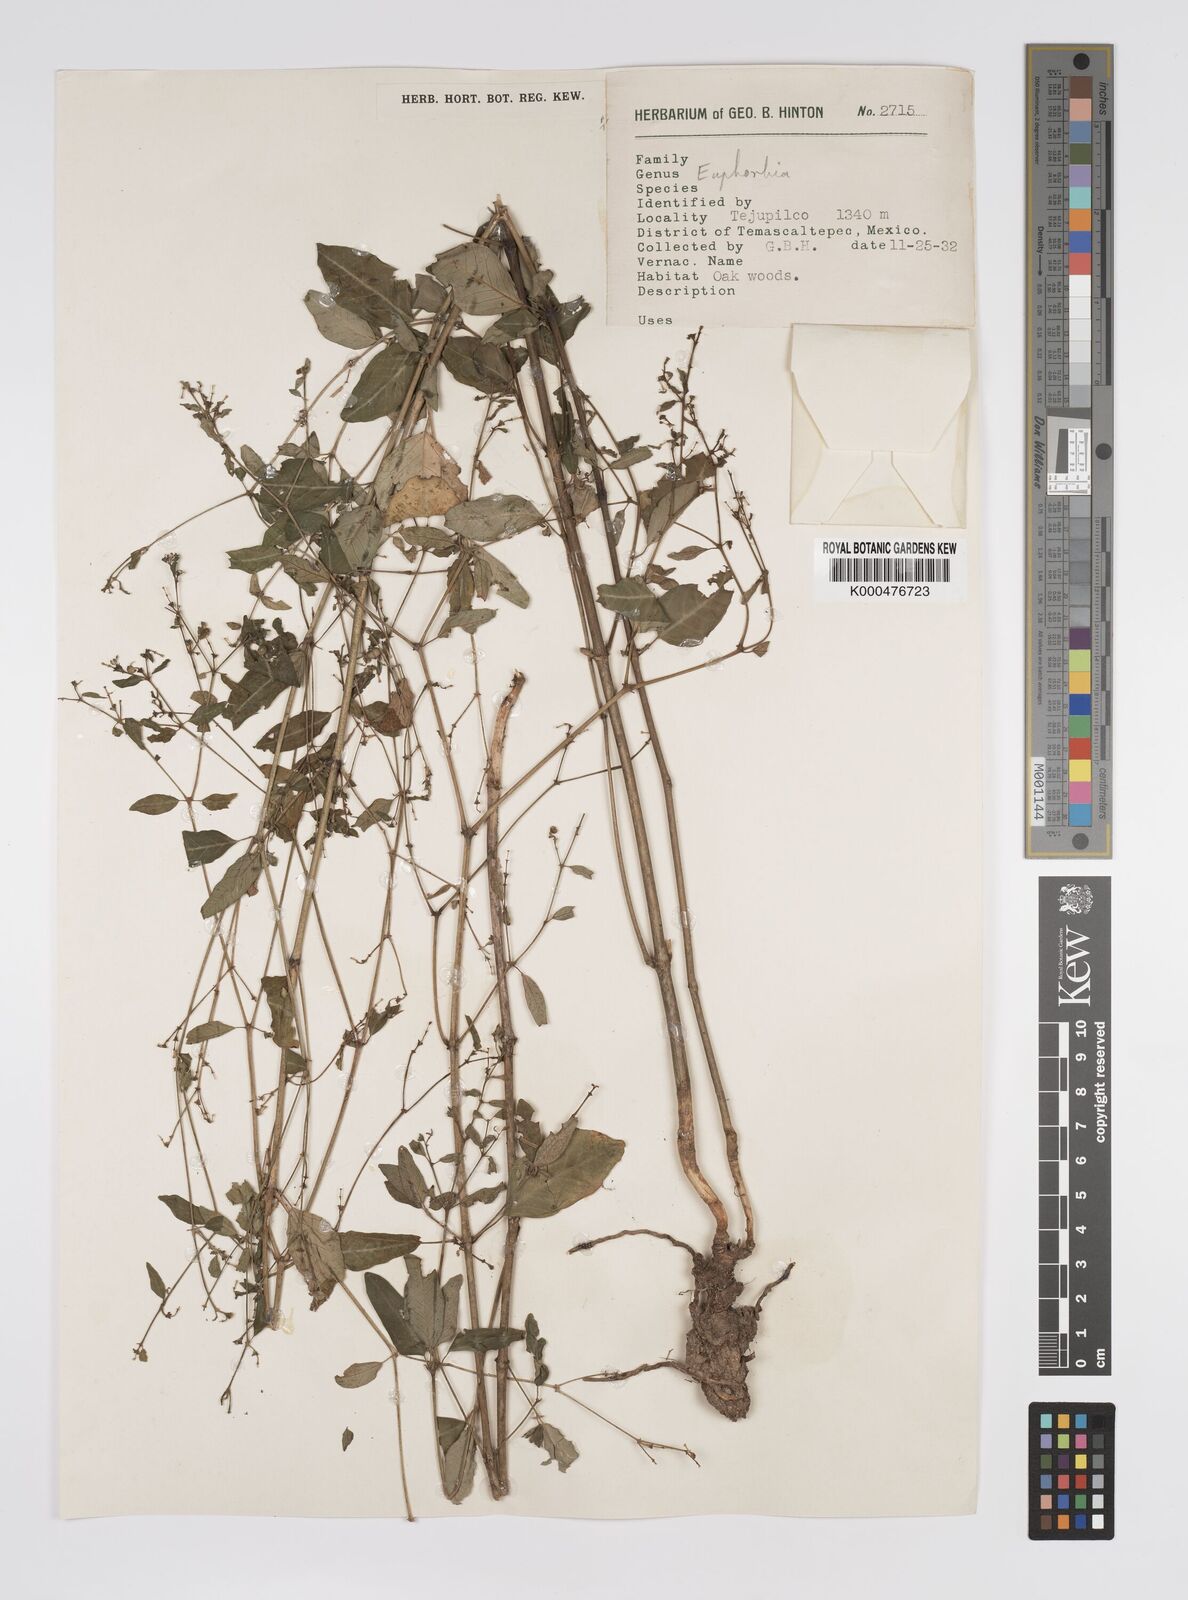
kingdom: Plantae
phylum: Tracheophyta
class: Magnoliopsida
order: Malpighiales
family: Euphorbiaceae
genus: Euphorbia
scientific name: Euphorbia
